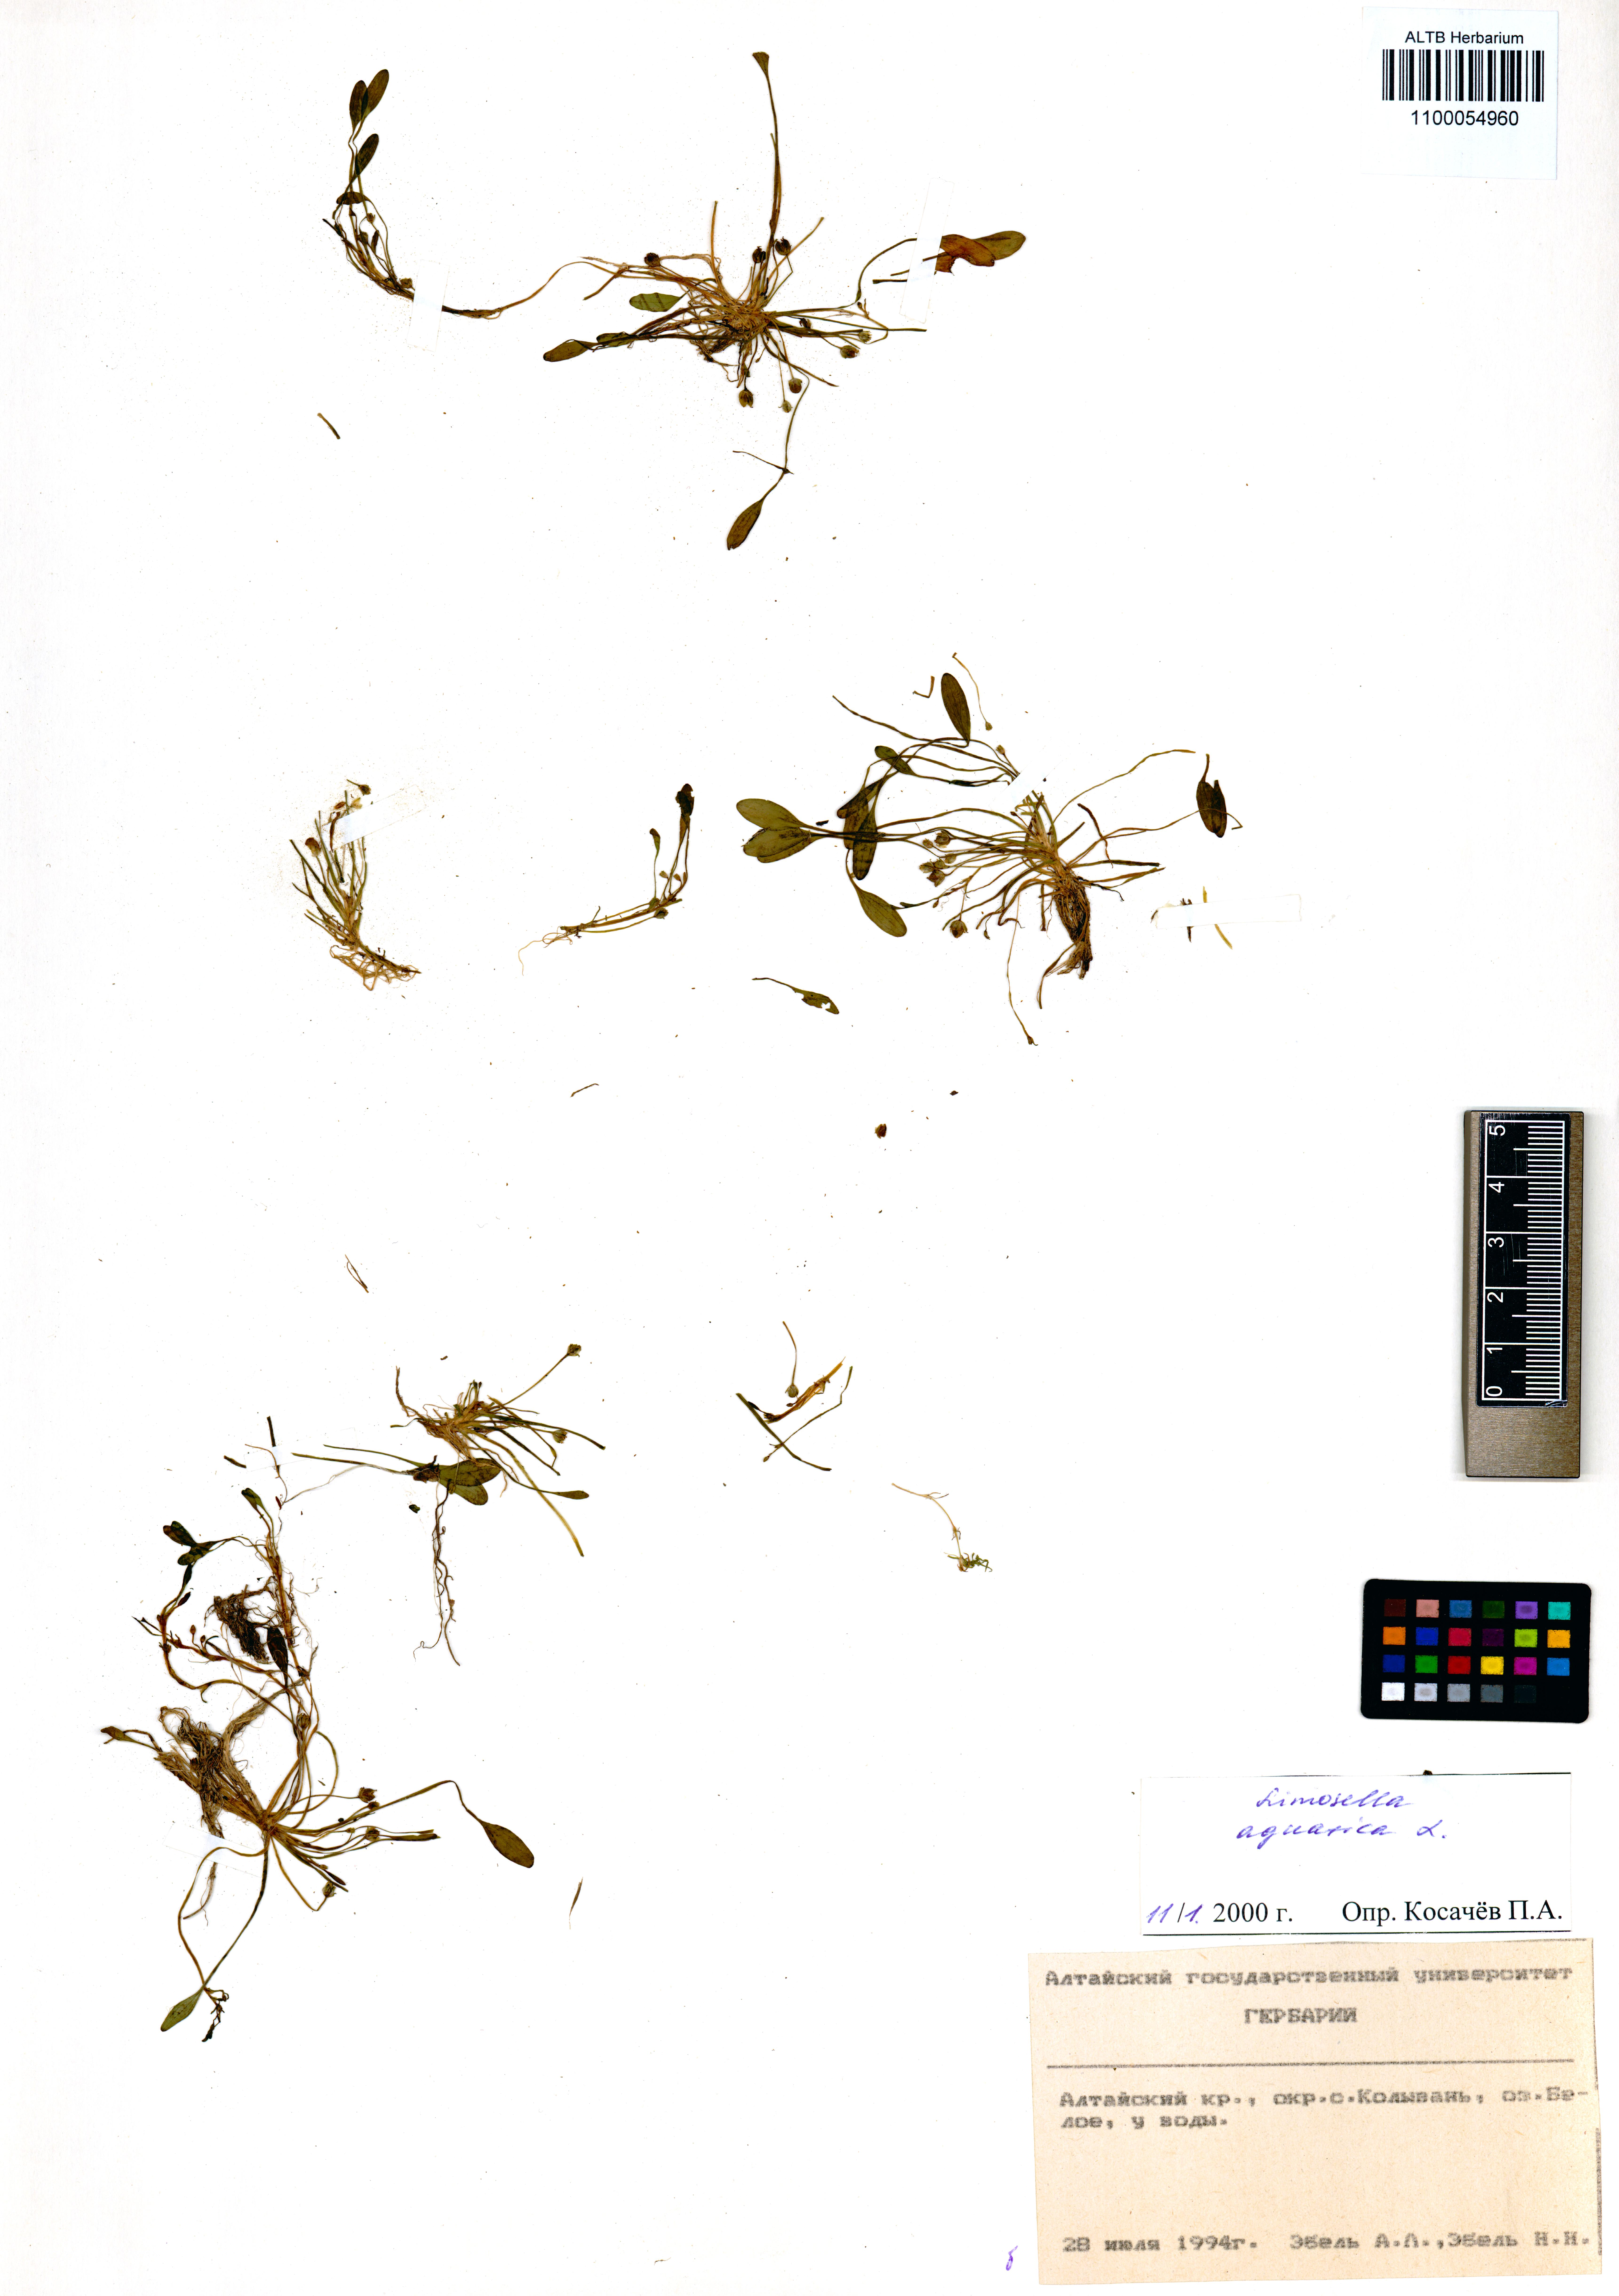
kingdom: Plantae
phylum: Tracheophyta
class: Magnoliopsida
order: Lamiales
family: Scrophulariaceae
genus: Limosella
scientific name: Limosella aquatica
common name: Mudwort
